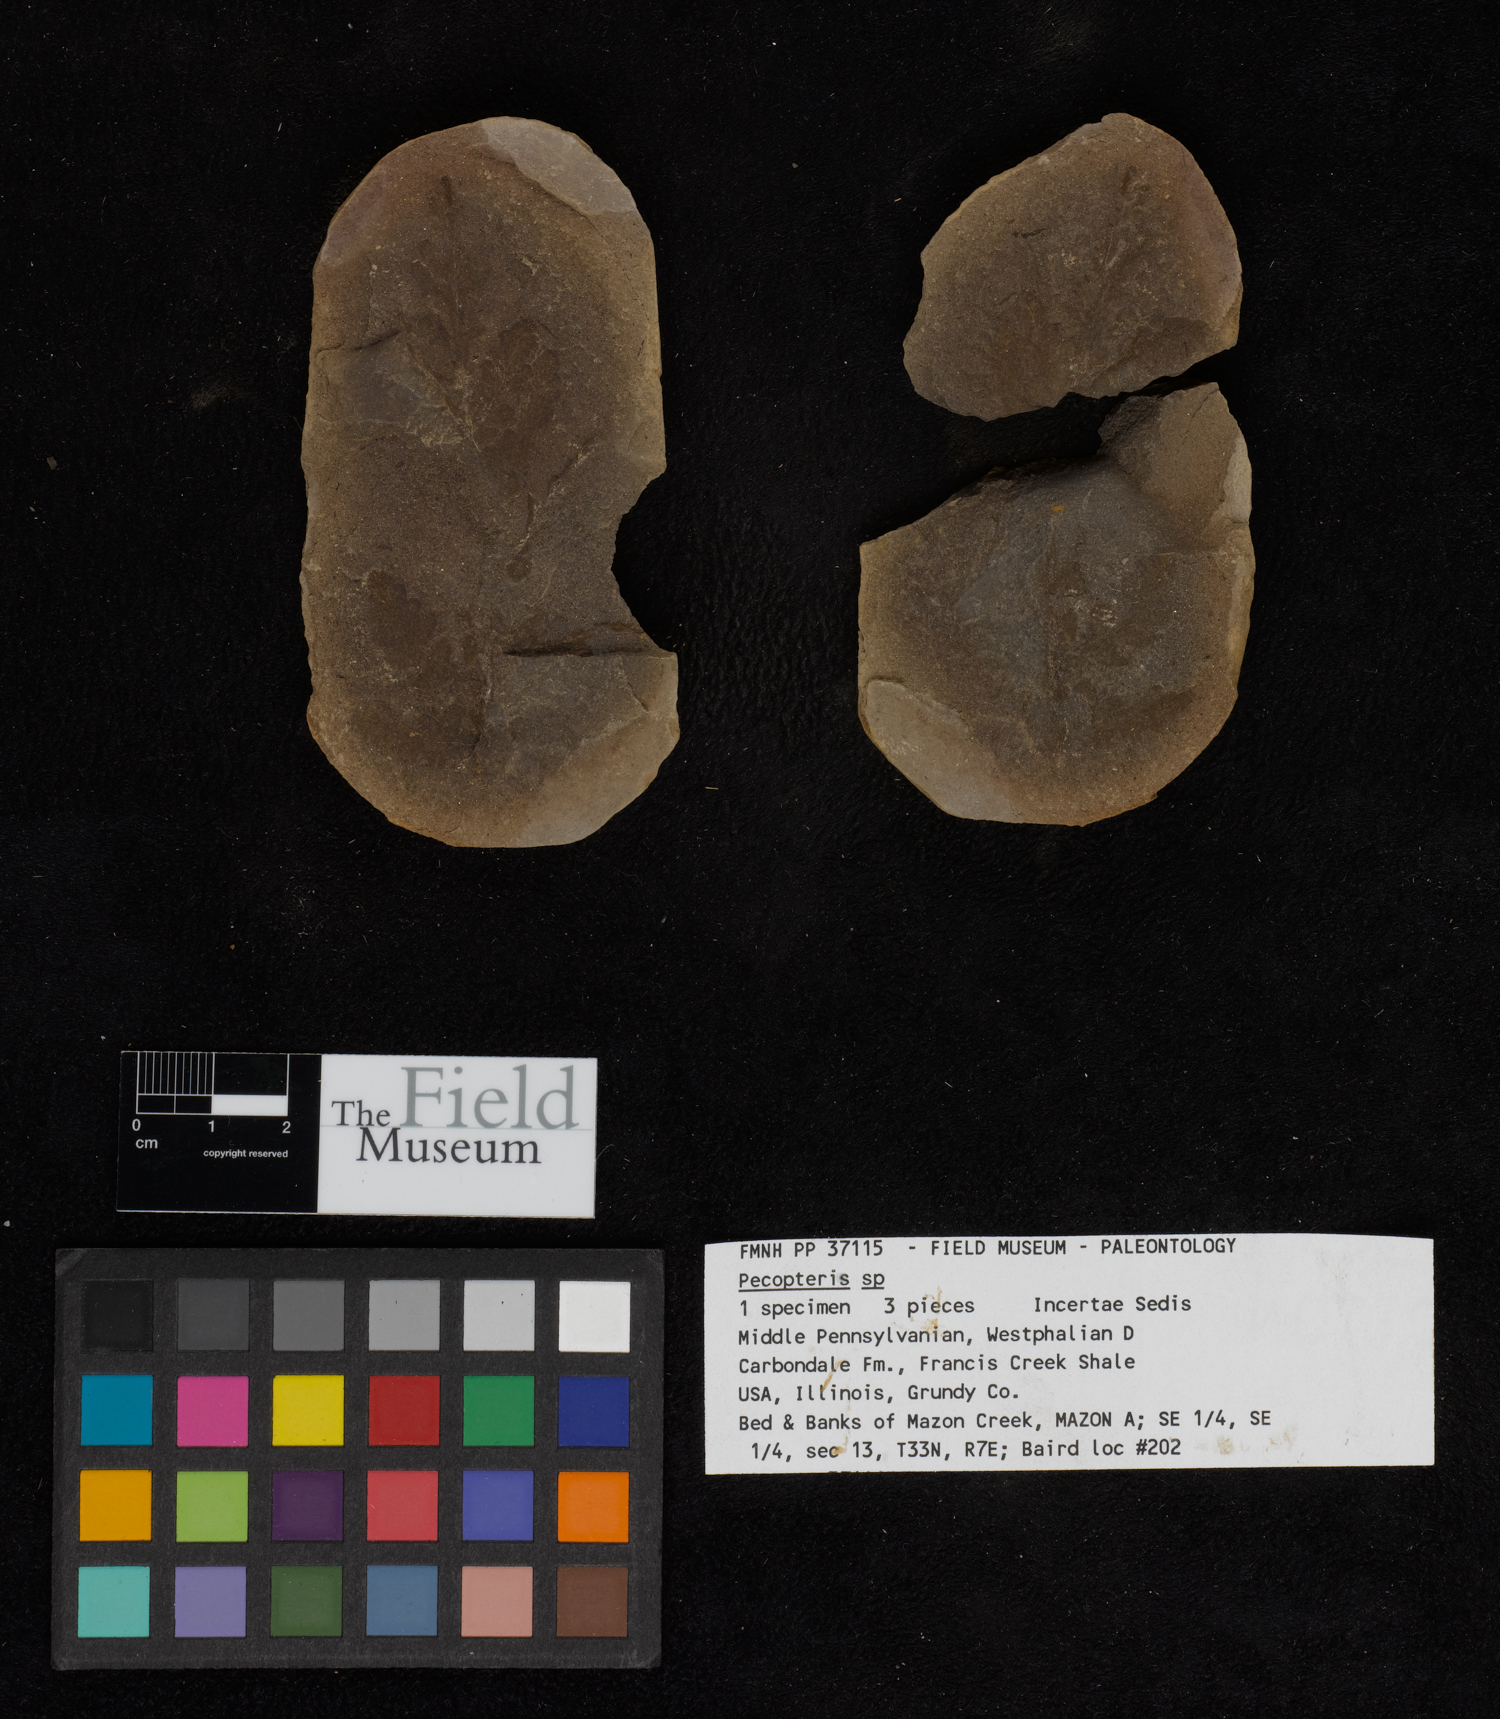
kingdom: Plantae
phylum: Tracheophyta
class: Polypodiopsida
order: Marattiales
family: Asterothecaceae
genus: Pecopteris
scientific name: Pecopteris
